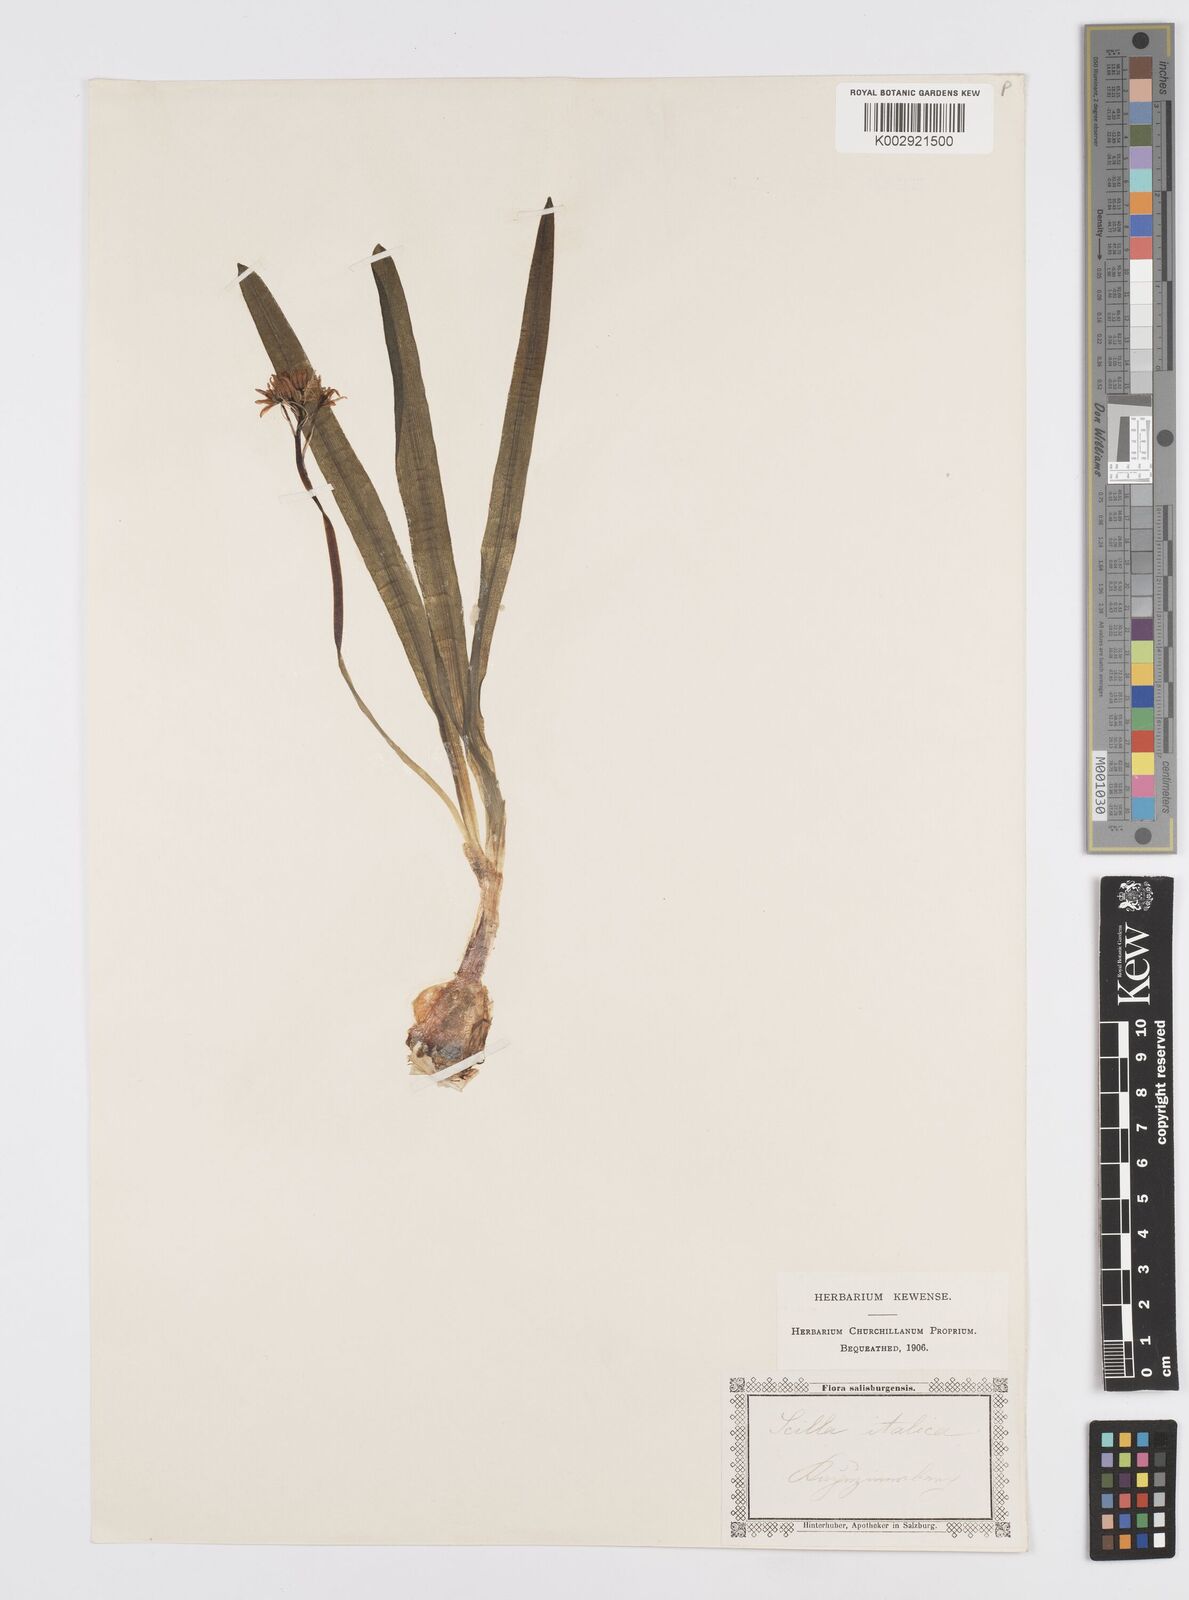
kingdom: Plantae
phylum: Tracheophyta
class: Liliopsida
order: Asparagales
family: Asparagaceae
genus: Hyacinthoides
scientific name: Hyacinthoides italica
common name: Italian bluebell
